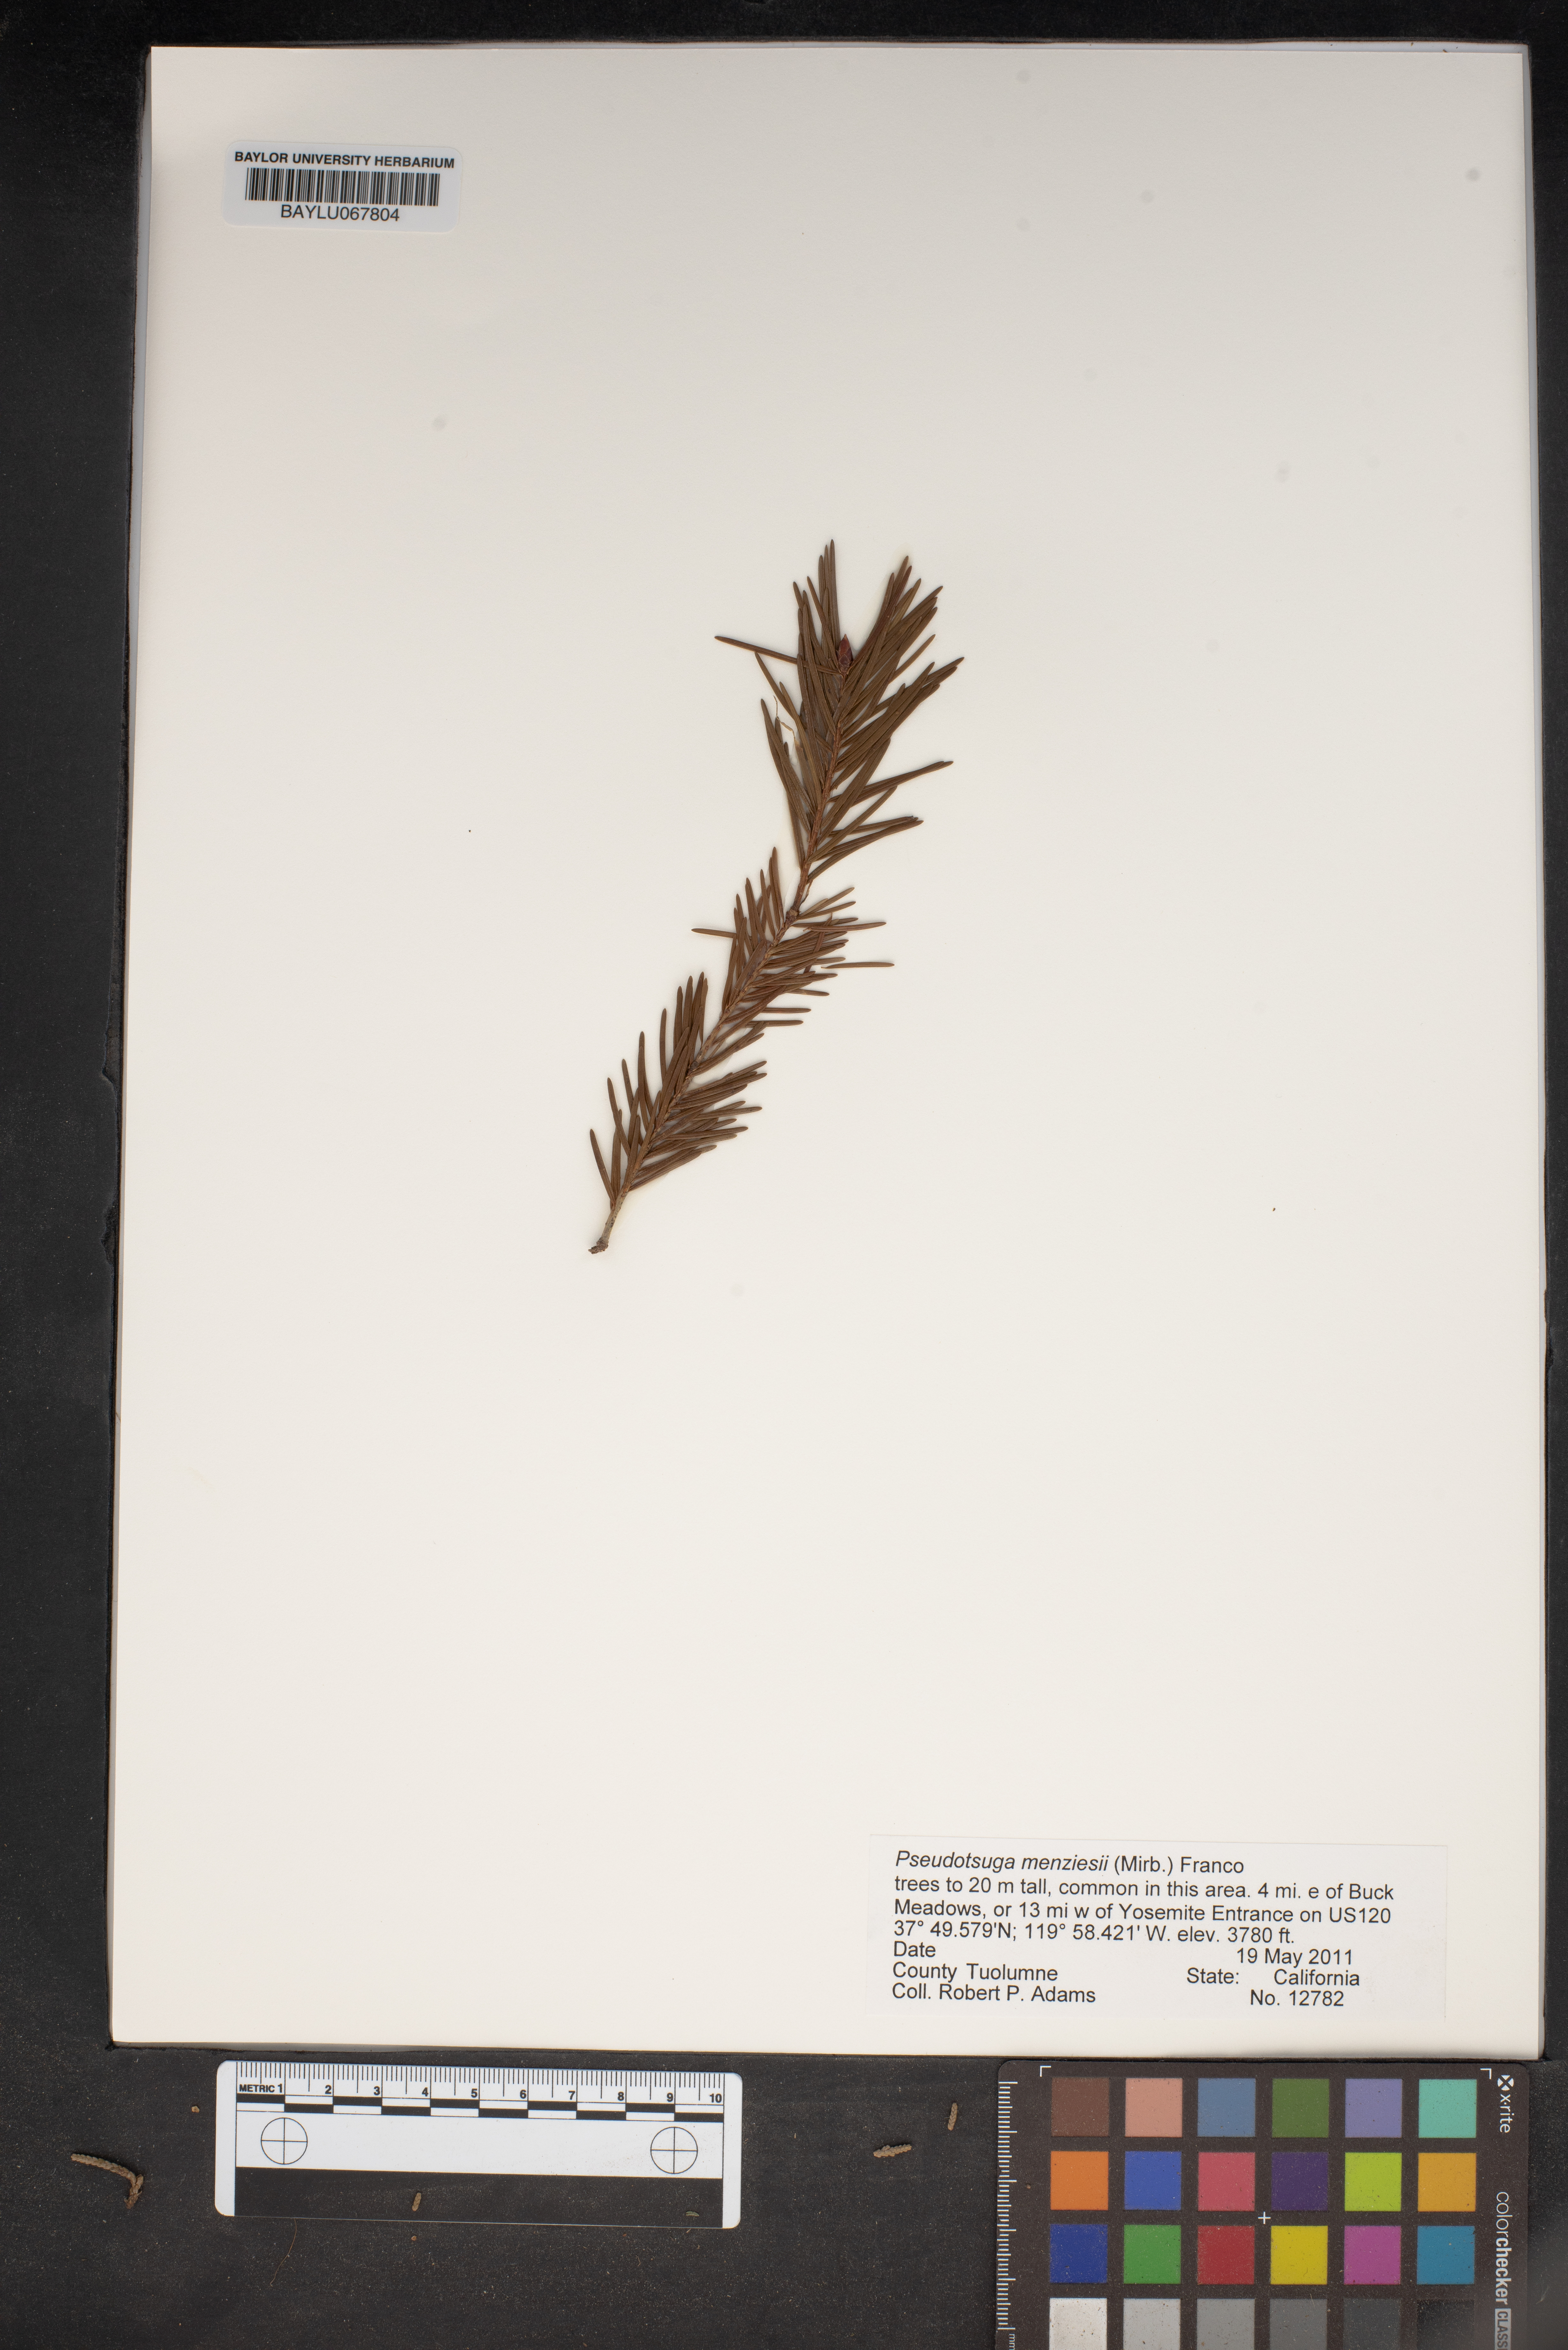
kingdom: Plantae
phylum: Tracheophyta
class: Pinopsida
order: Pinales
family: Pinaceae
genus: Pseudotsuga
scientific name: Pseudotsuga menziesii
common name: Douglas fir
